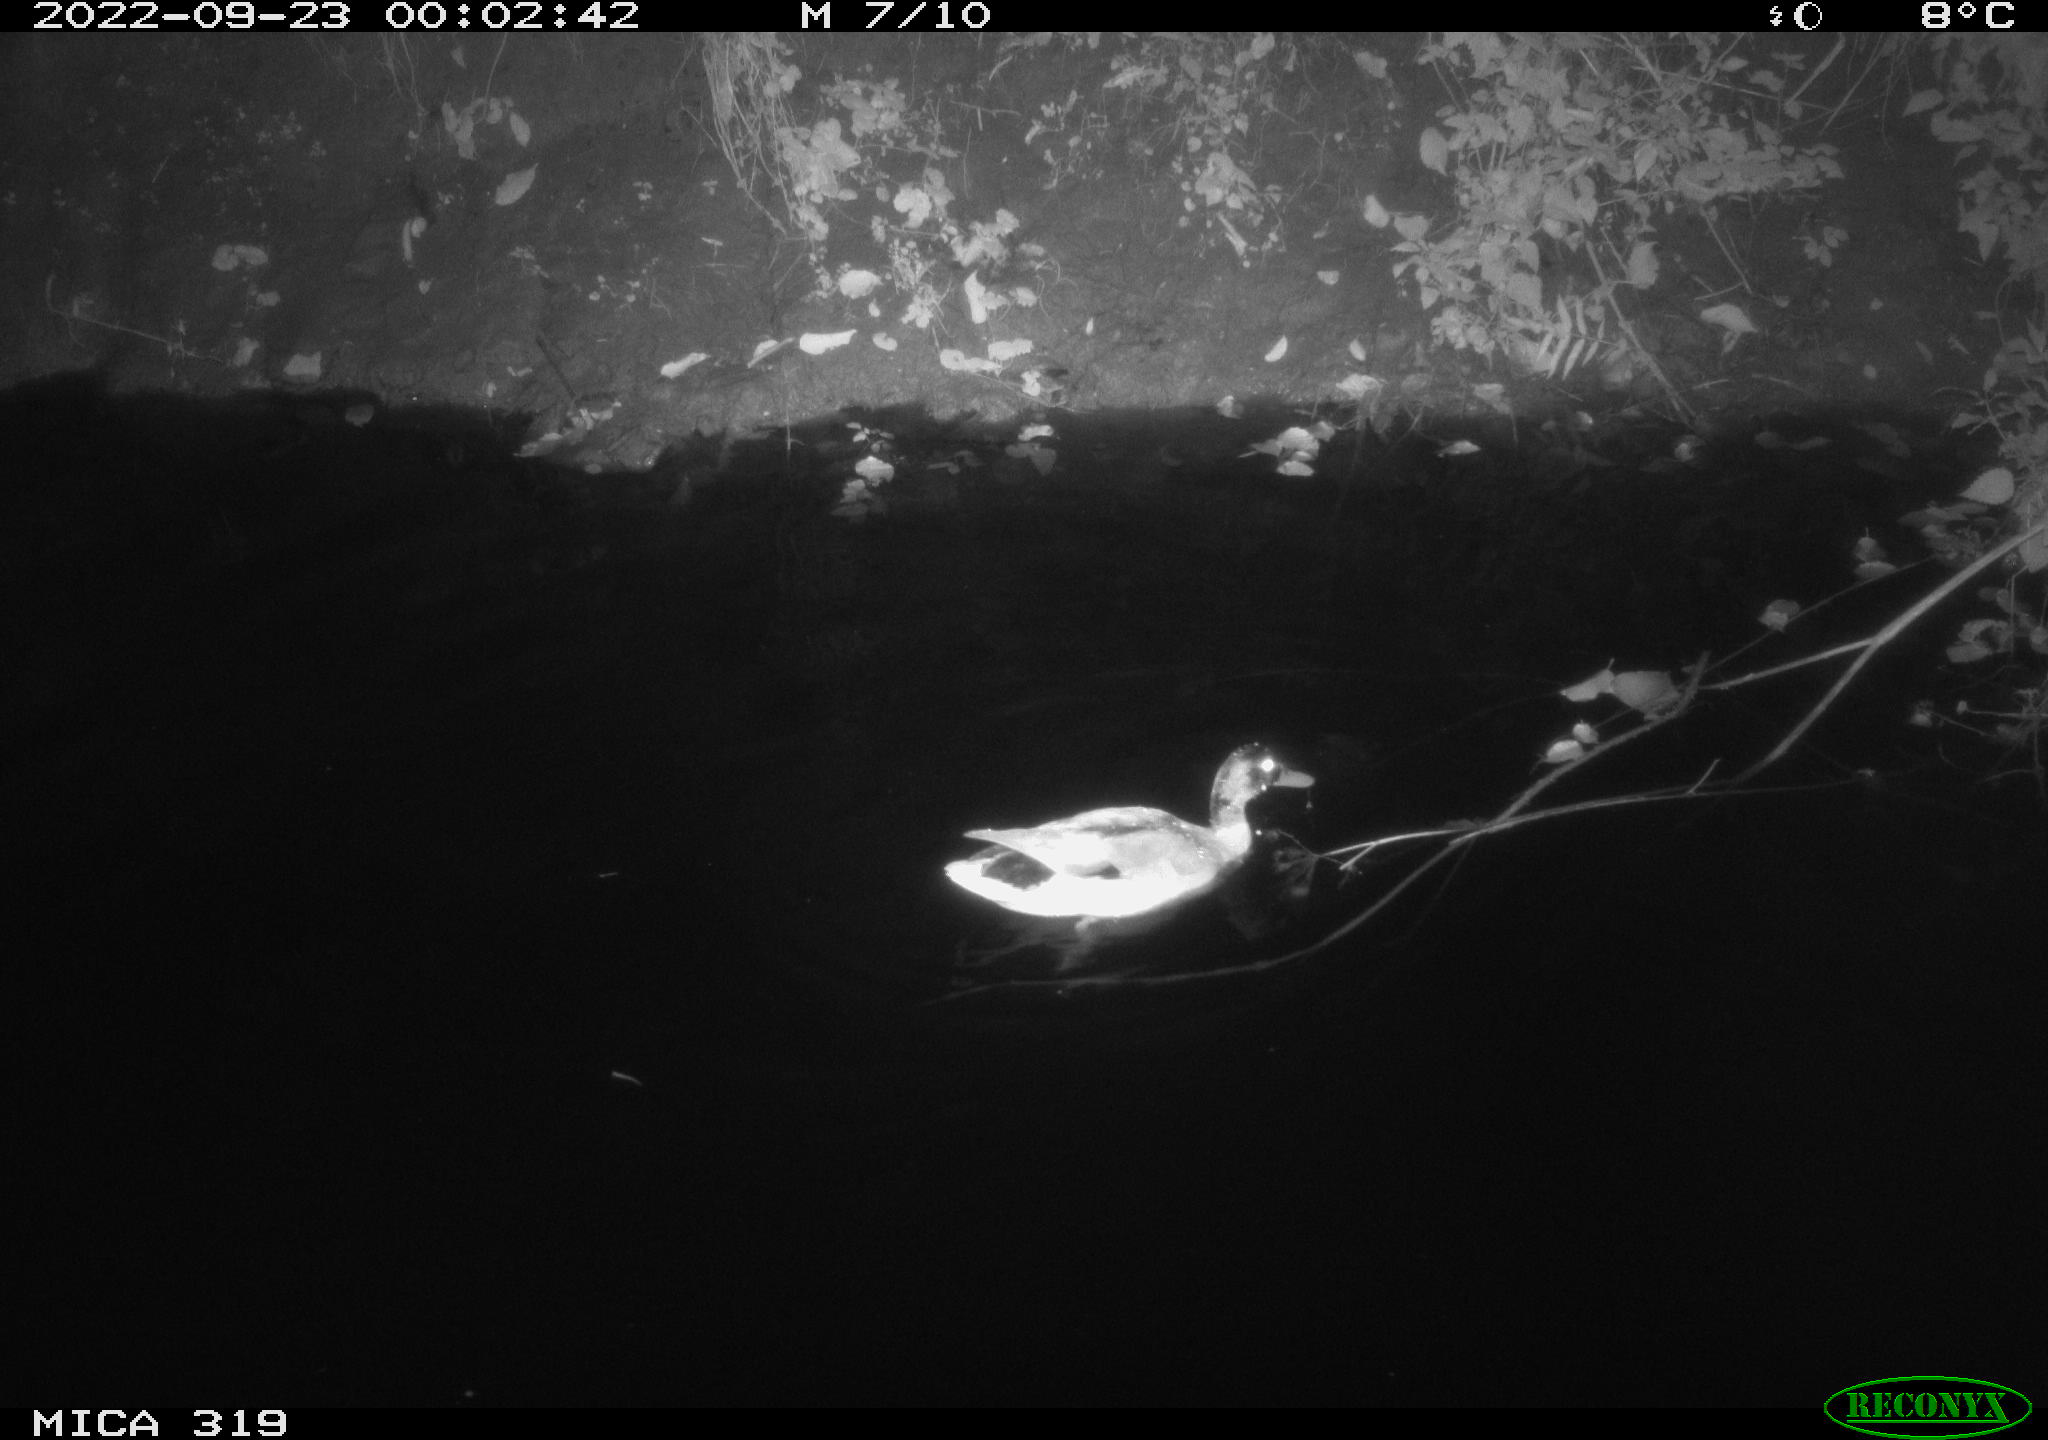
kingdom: Animalia
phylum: Chordata
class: Aves
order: Anseriformes
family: Anatidae
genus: Anas
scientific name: Anas
